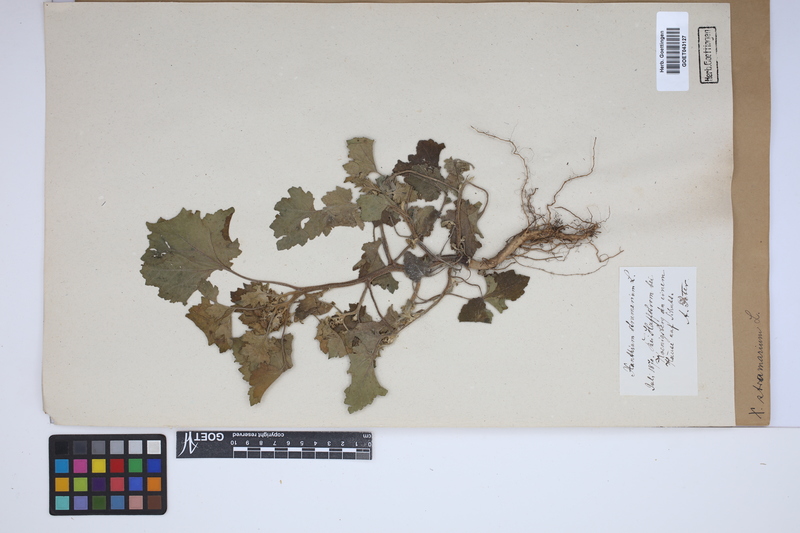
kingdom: Plantae
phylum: Tracheophyta
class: Magnoliopsida
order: Asterales
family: Asteraceae
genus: Xanthium
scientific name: Xanthium strumarium
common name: Rough cocklebur
